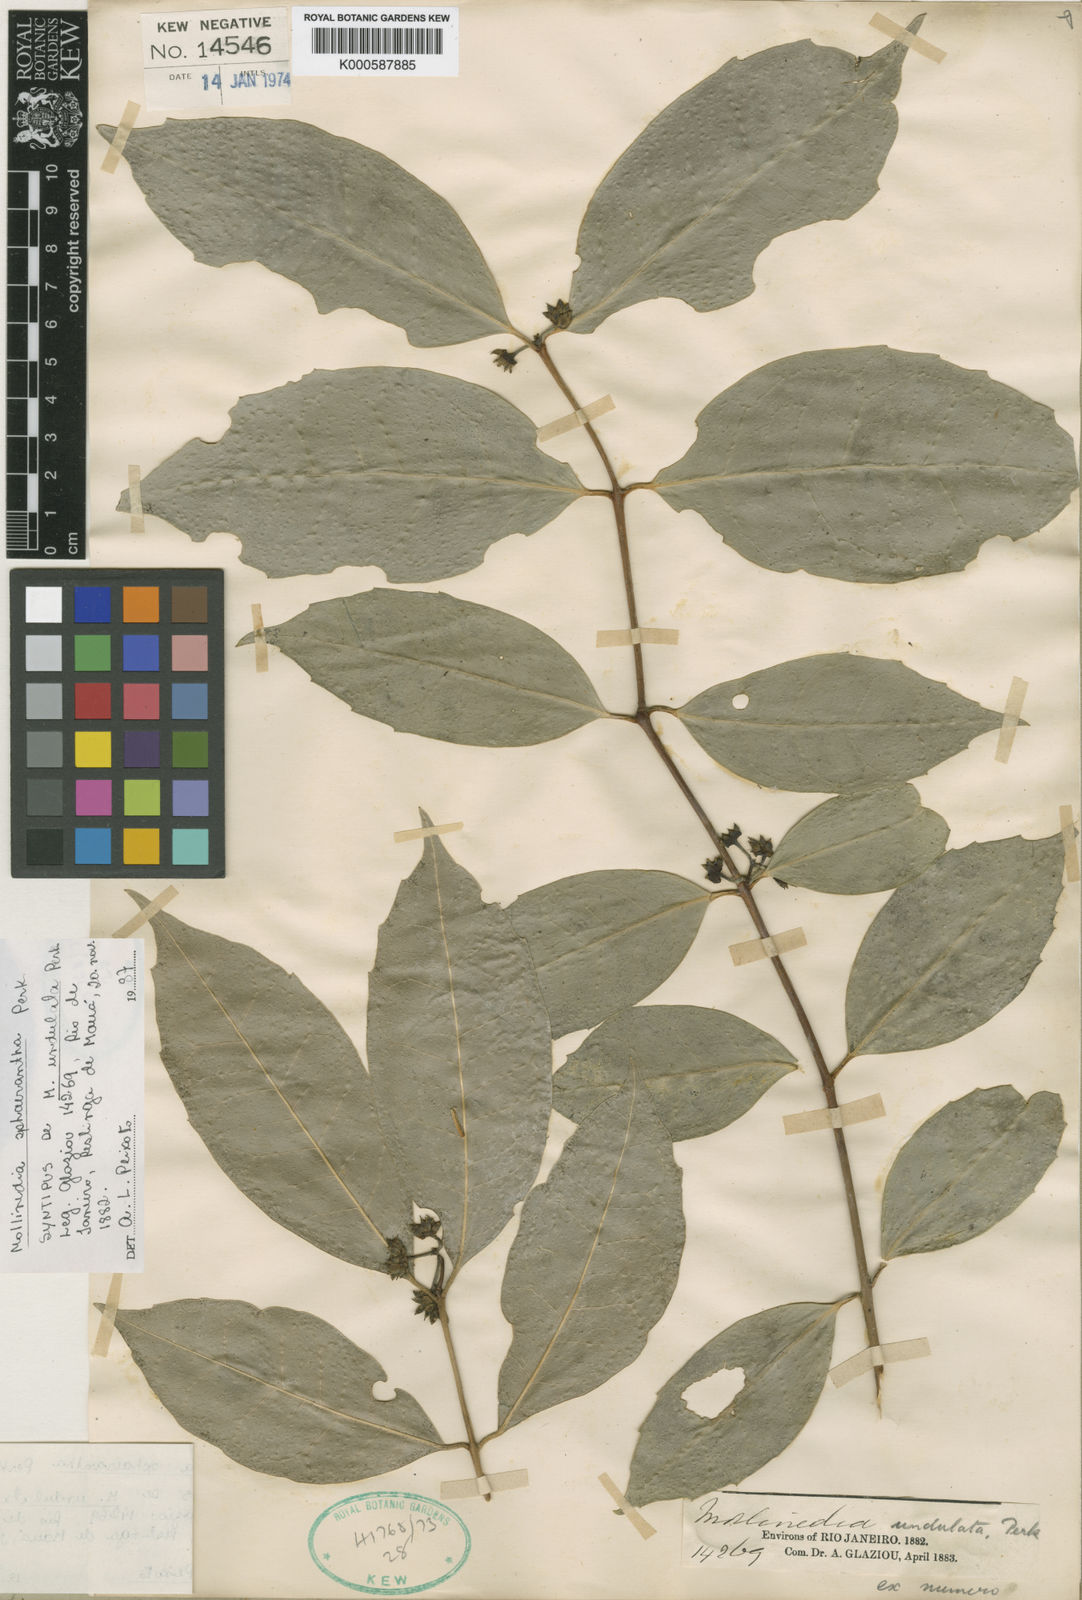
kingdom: Plantae
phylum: Tracheophyta
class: Magnoliopsida
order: Laurales
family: Monimiaceae
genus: Mollinedia
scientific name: Mollinedia glabra
